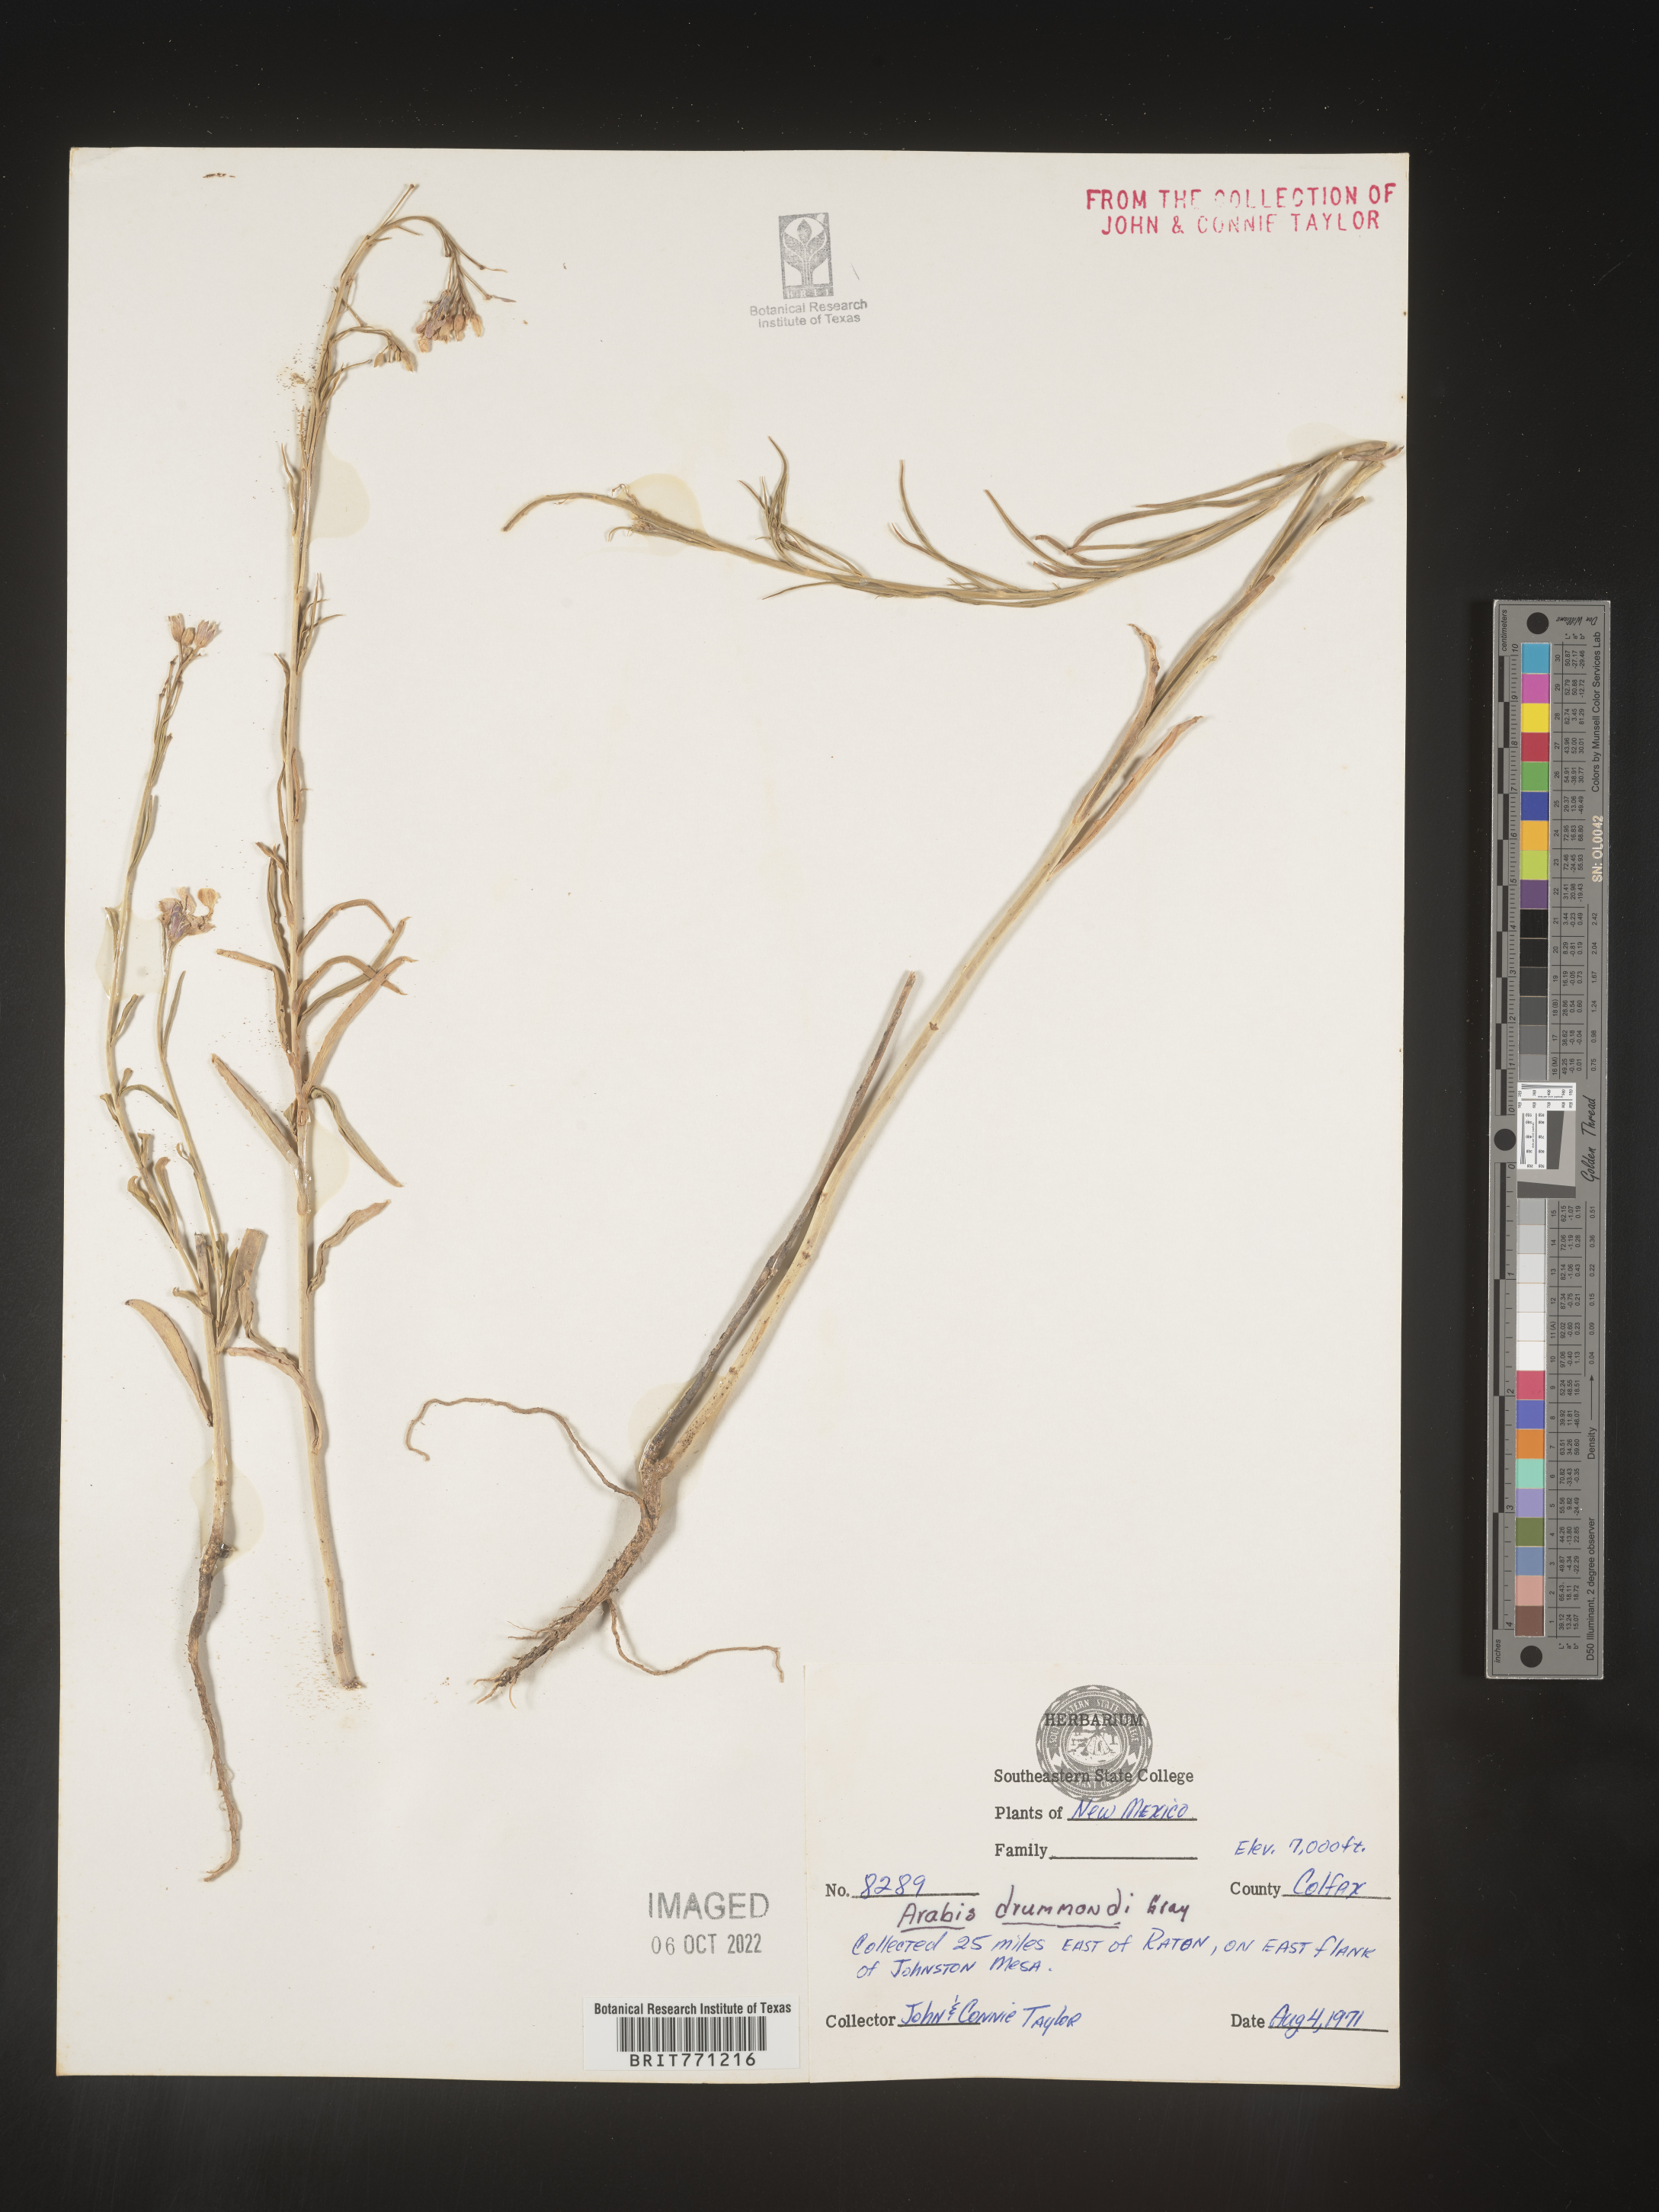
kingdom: Plantae
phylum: Tracheophyta
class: Magnoliopsida
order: Brassicales
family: Brassicaceae
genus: Boechera
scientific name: Boechera stricta
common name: Canadian rockcress
